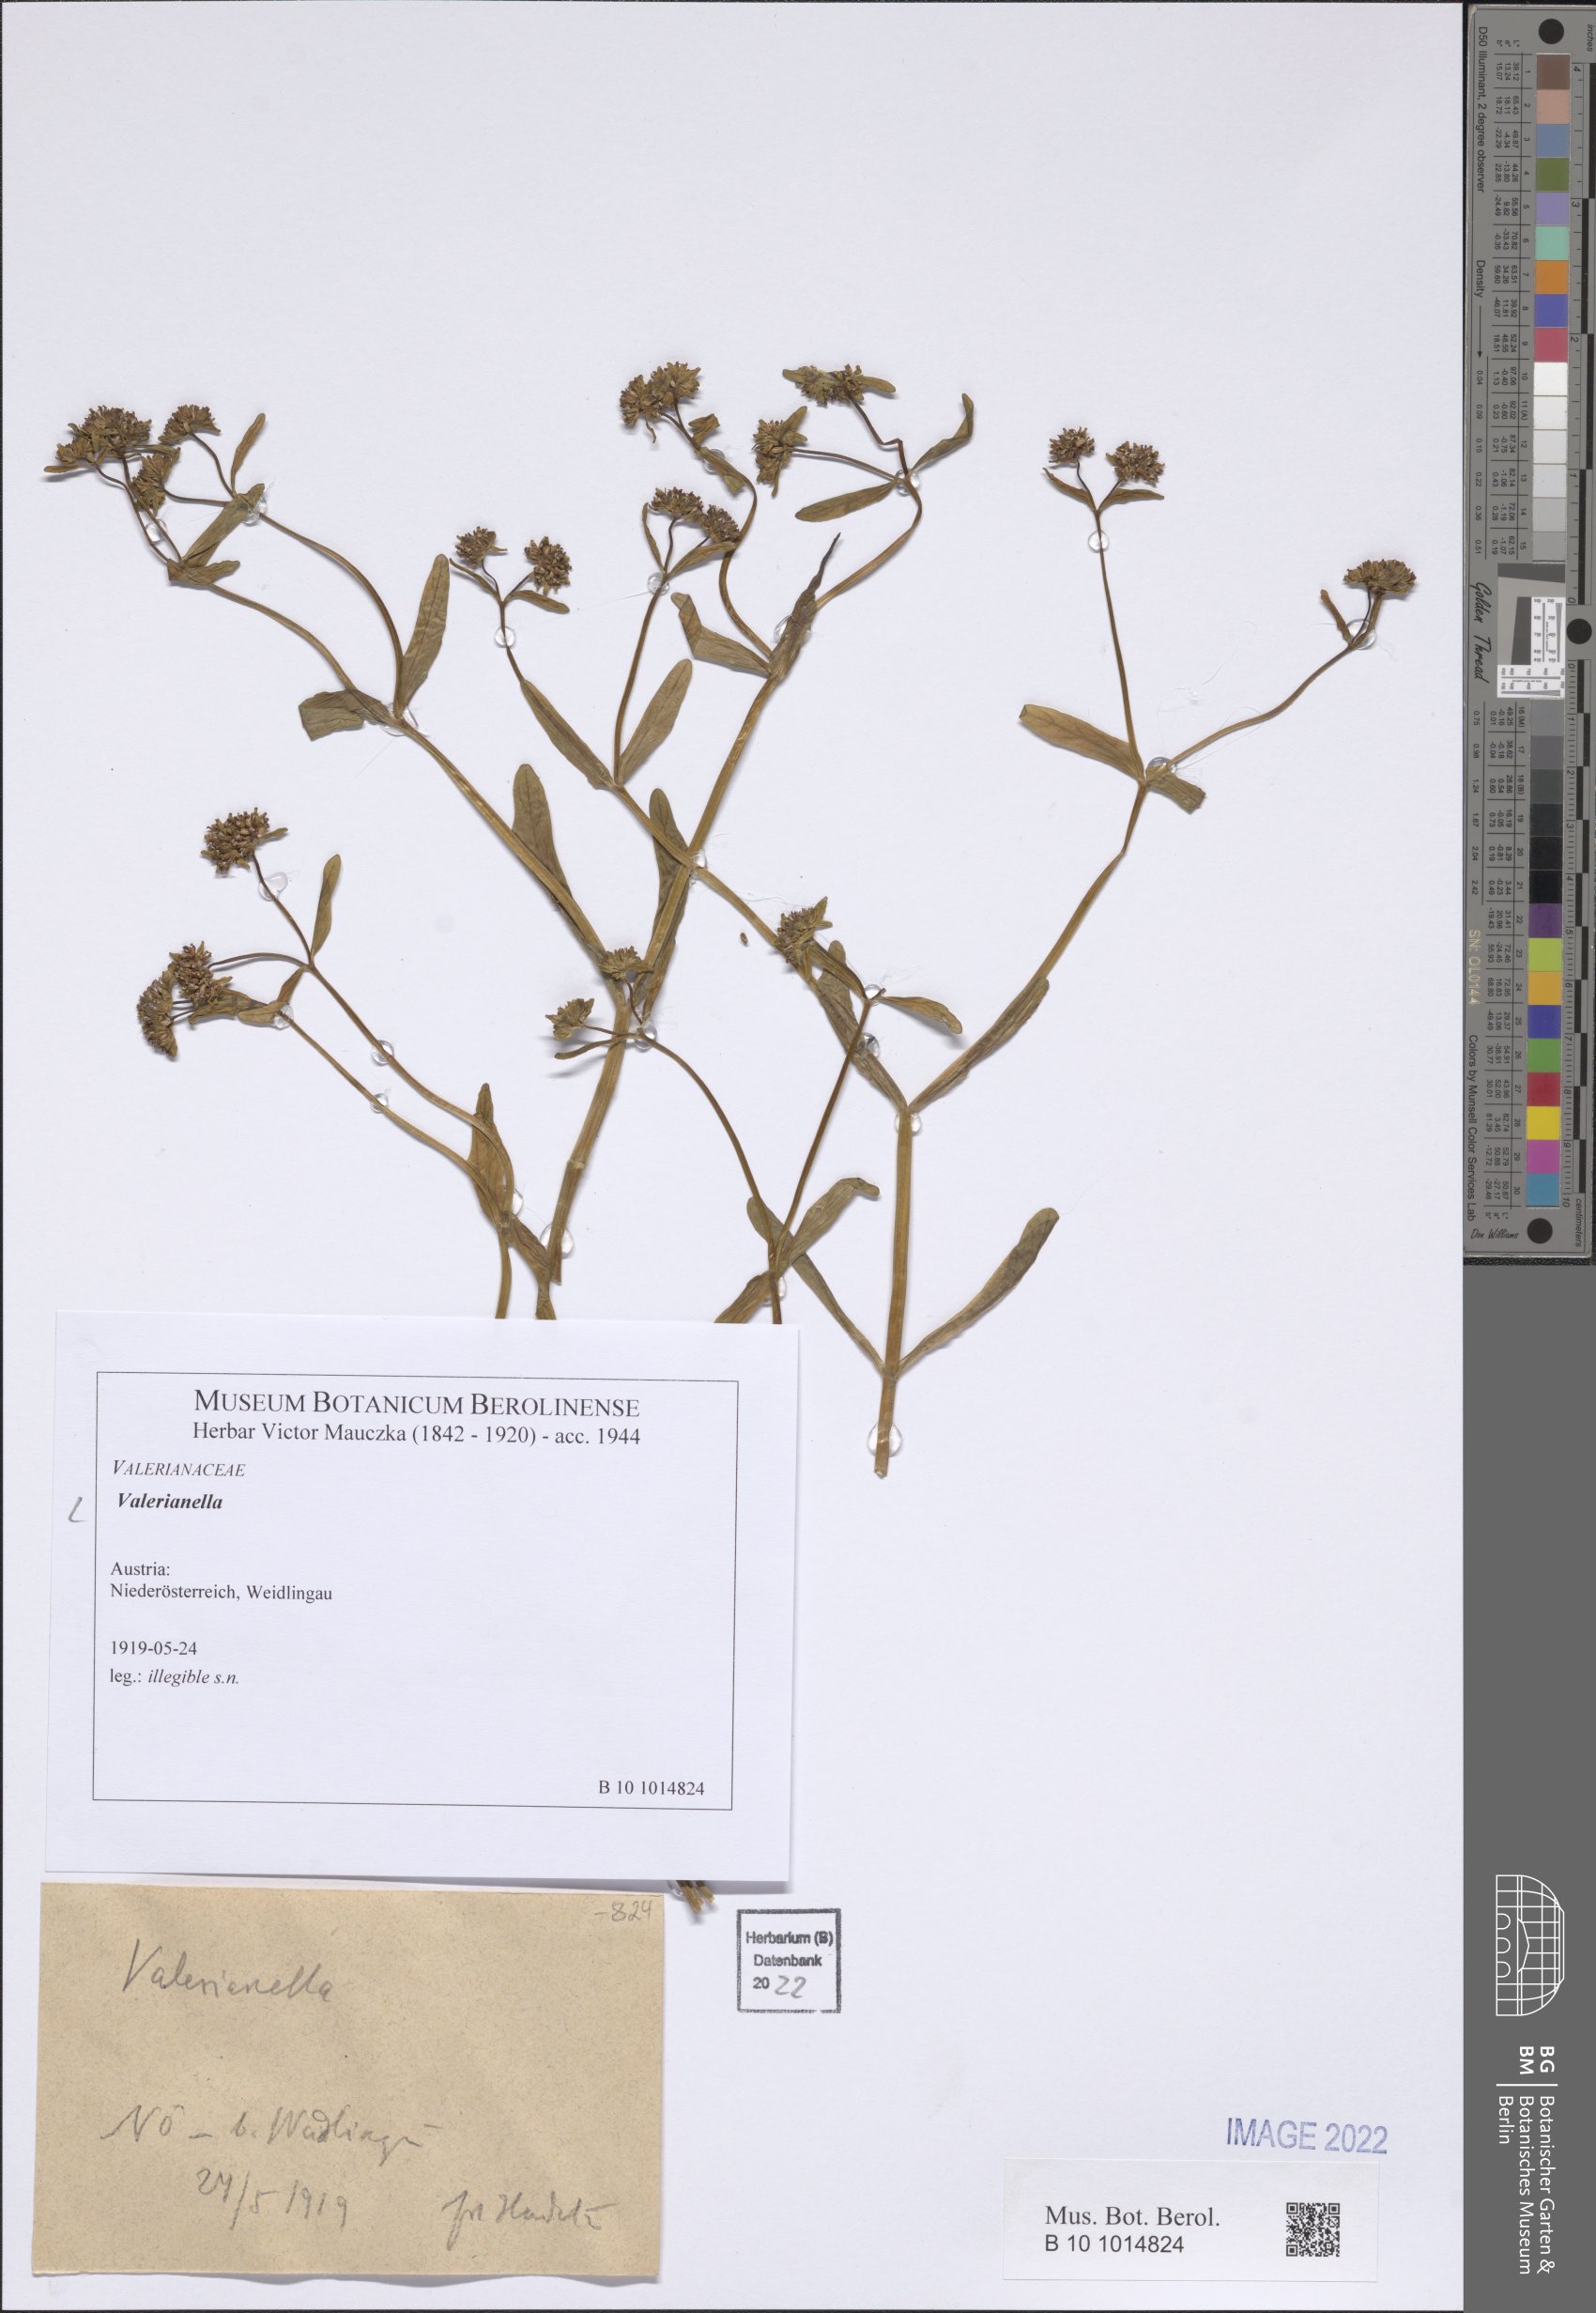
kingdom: Plantae
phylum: Tracheophyta
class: Magnoliopsida
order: Dipsacales
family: Caprifoliaceae
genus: Valerianella
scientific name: Valerianella
